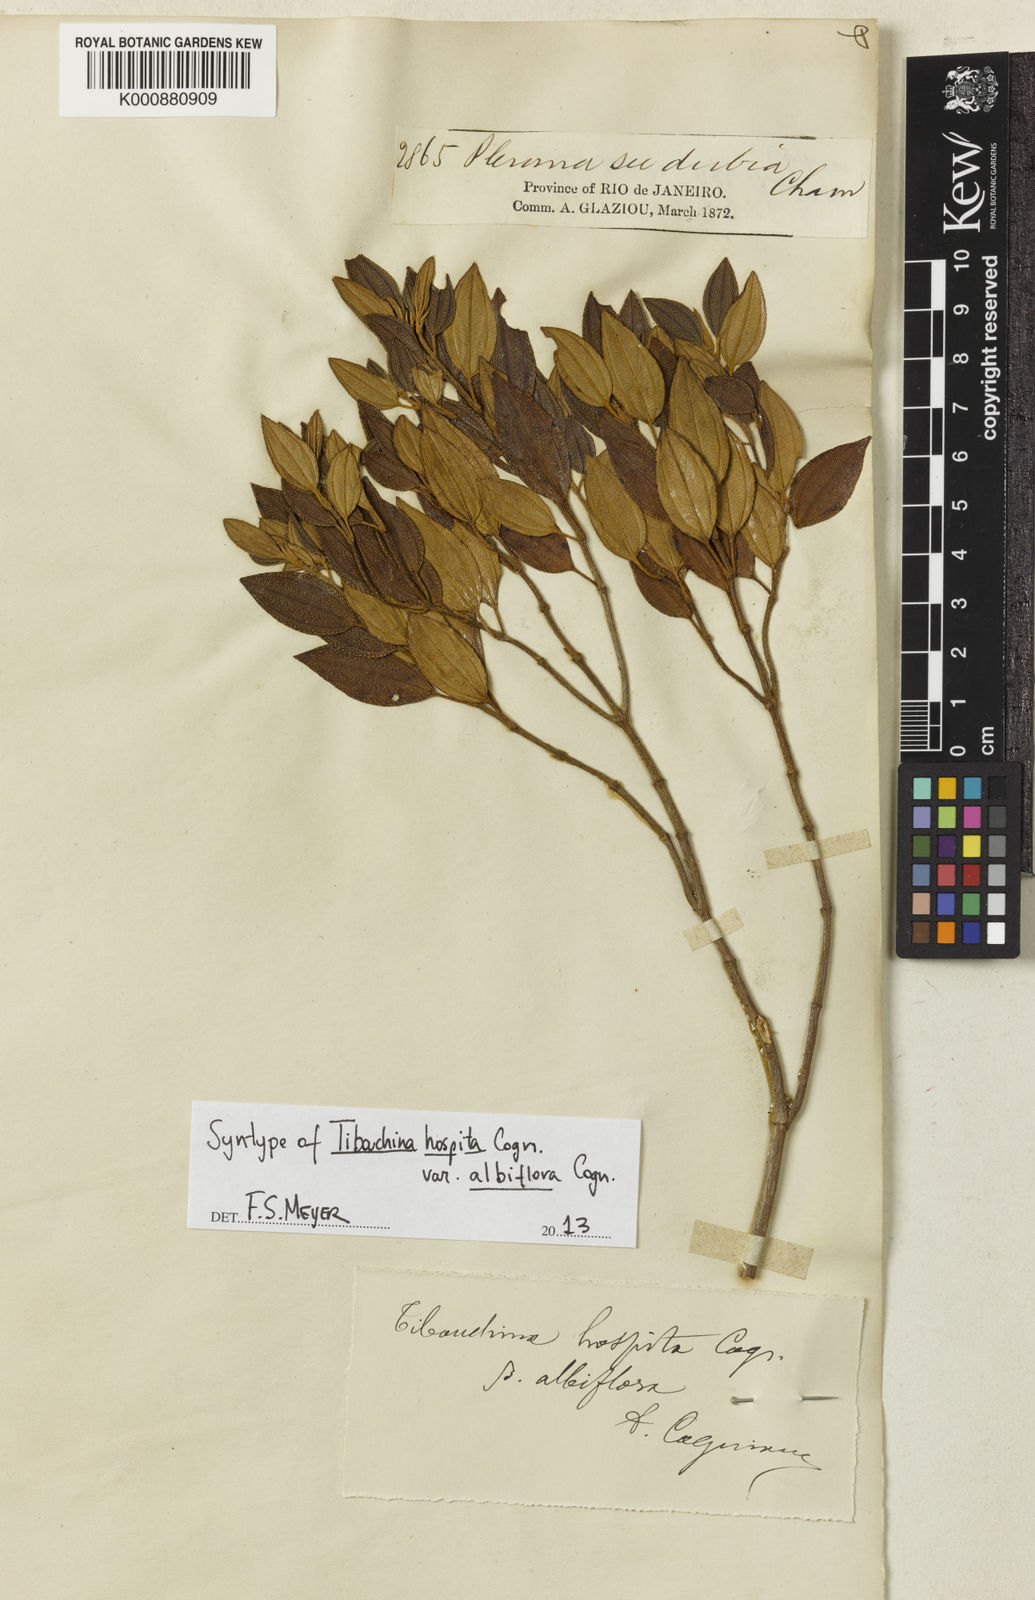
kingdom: Plantae
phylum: Tracheophyta
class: Magnoliopsida
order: Myrtales
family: Melastomataceae
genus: Pleroma
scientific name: Pleroma hospitum
